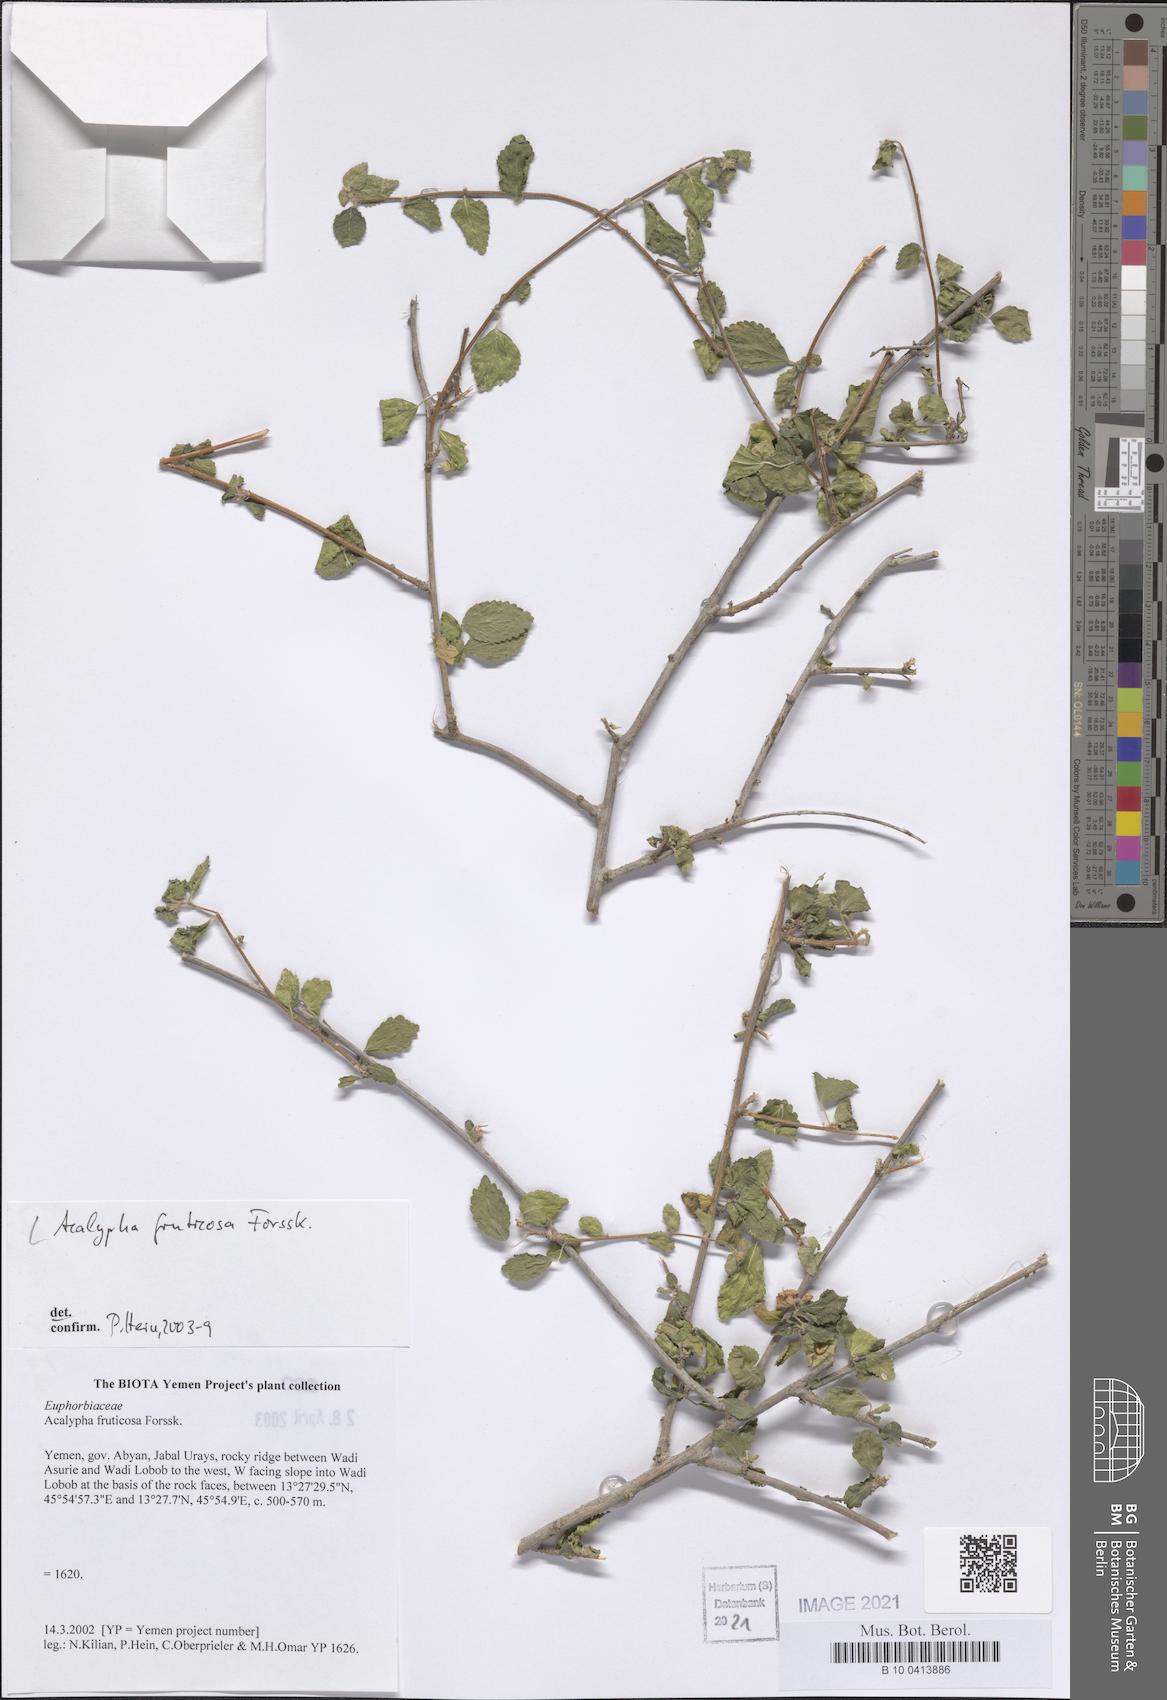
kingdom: Plantae
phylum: Tracheophyta
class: Magnoliopsida
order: Malpighiales
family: Euphorbiaceae
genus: Acalypha
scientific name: Acalypha fruticosa
